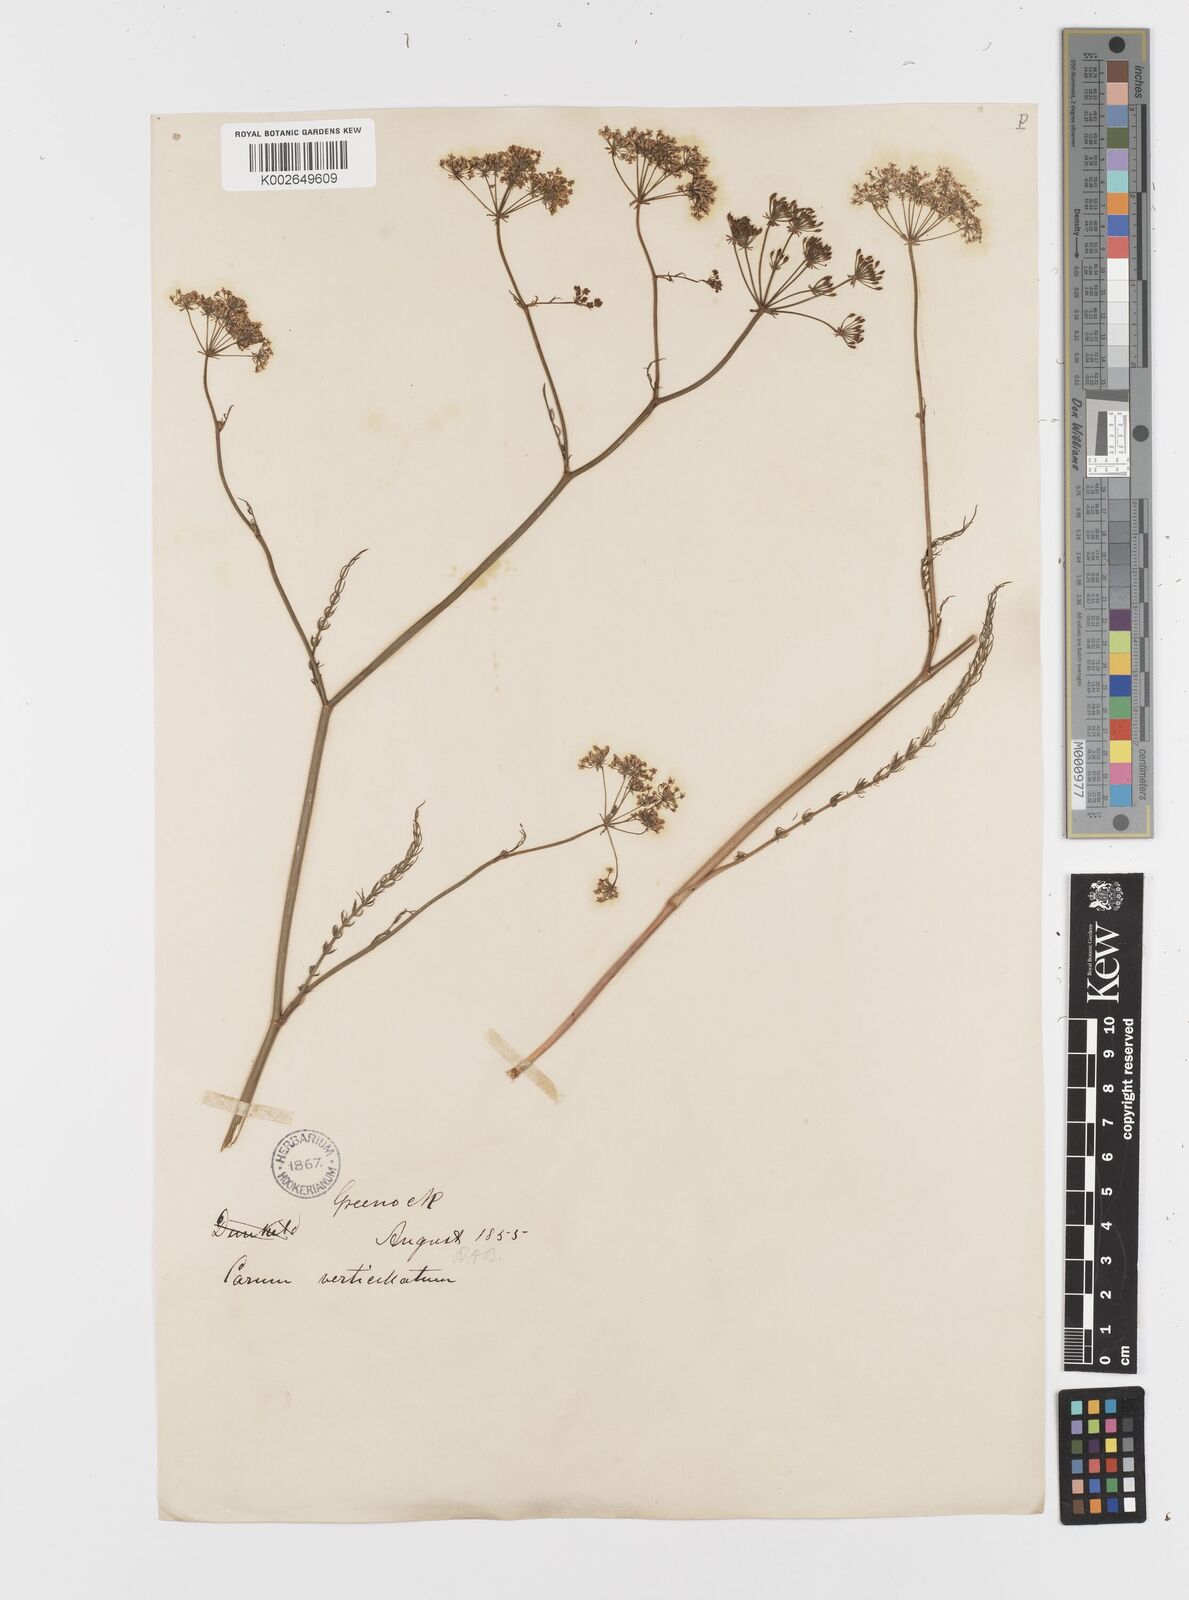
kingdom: Plantae
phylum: Tracheophyta
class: Magnoliopsida
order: Apiales
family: Apiaceae
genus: Trocdaris
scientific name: Trocdaris verticillatum
